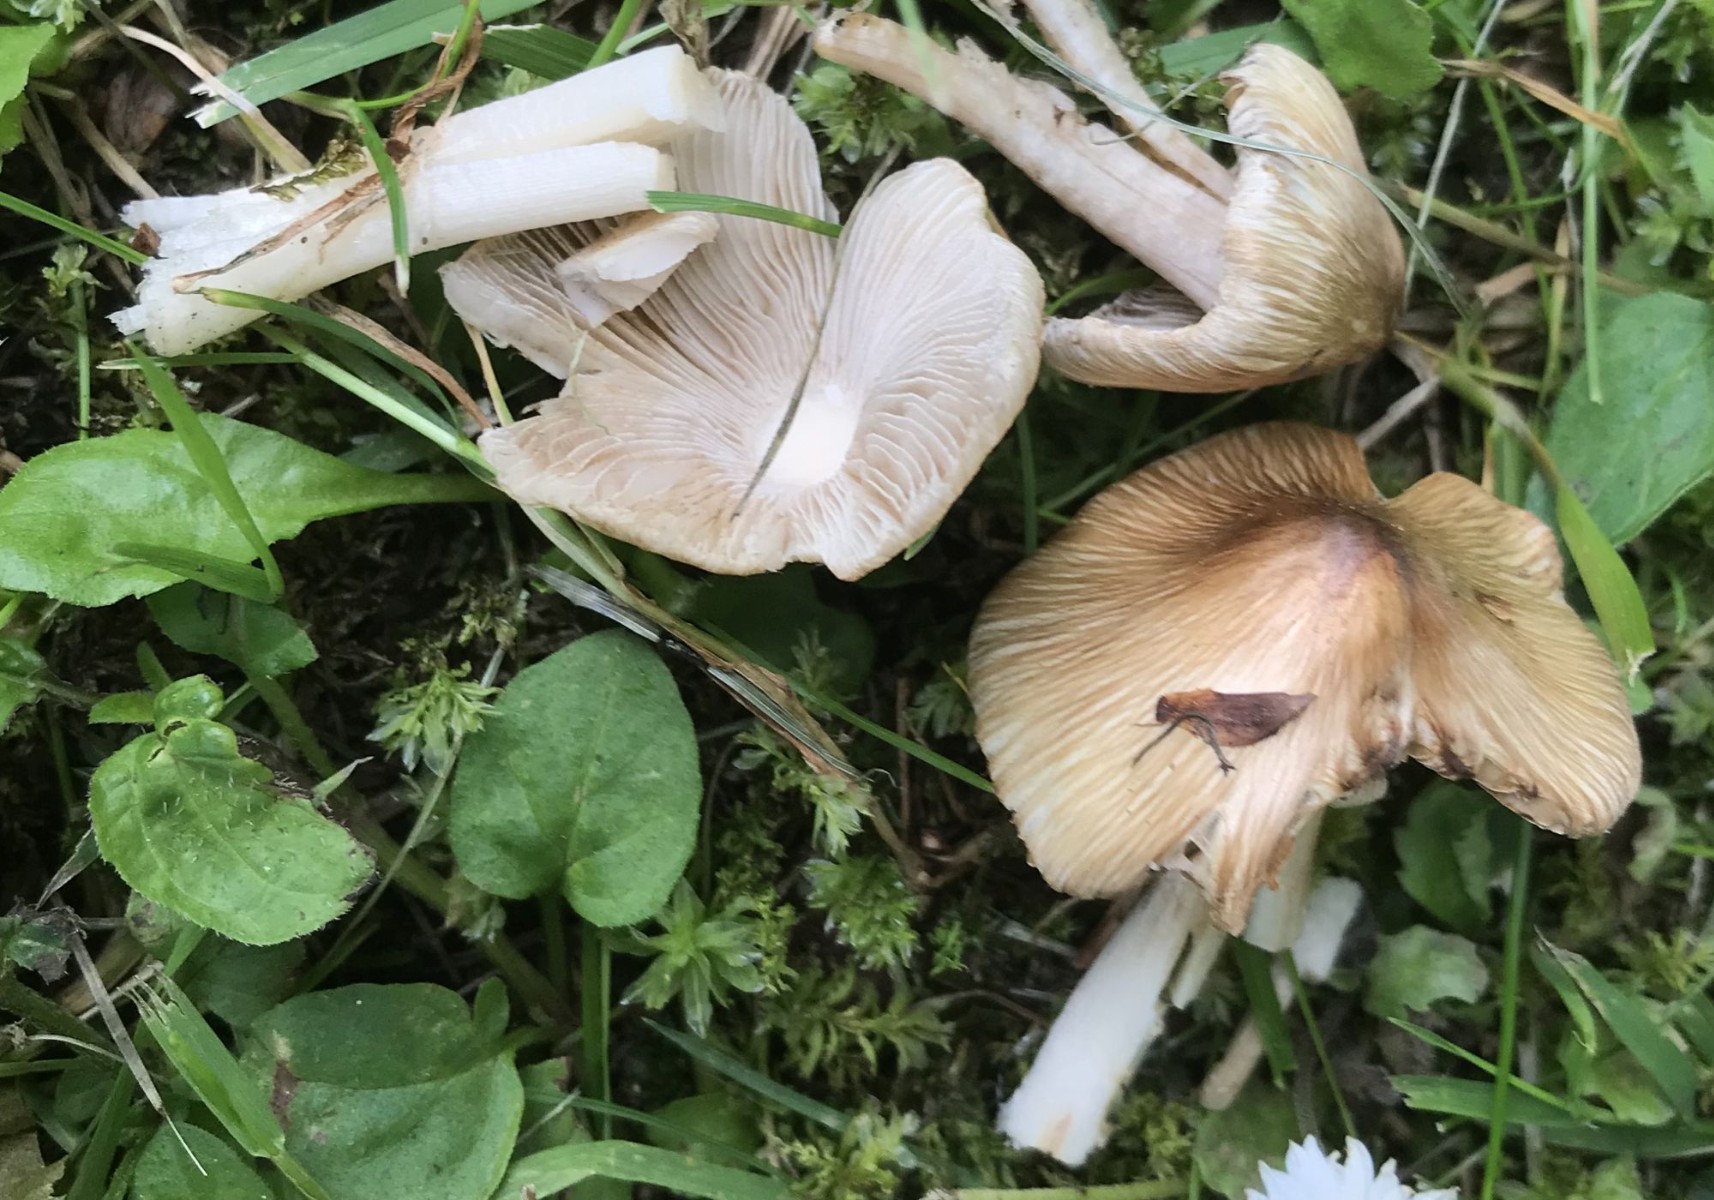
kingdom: Fungi
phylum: Basidiomycota
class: Agaricomycetes
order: Agaricales
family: Inocybaceae
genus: Inocybe
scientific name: Inocybe
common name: trævlhat
